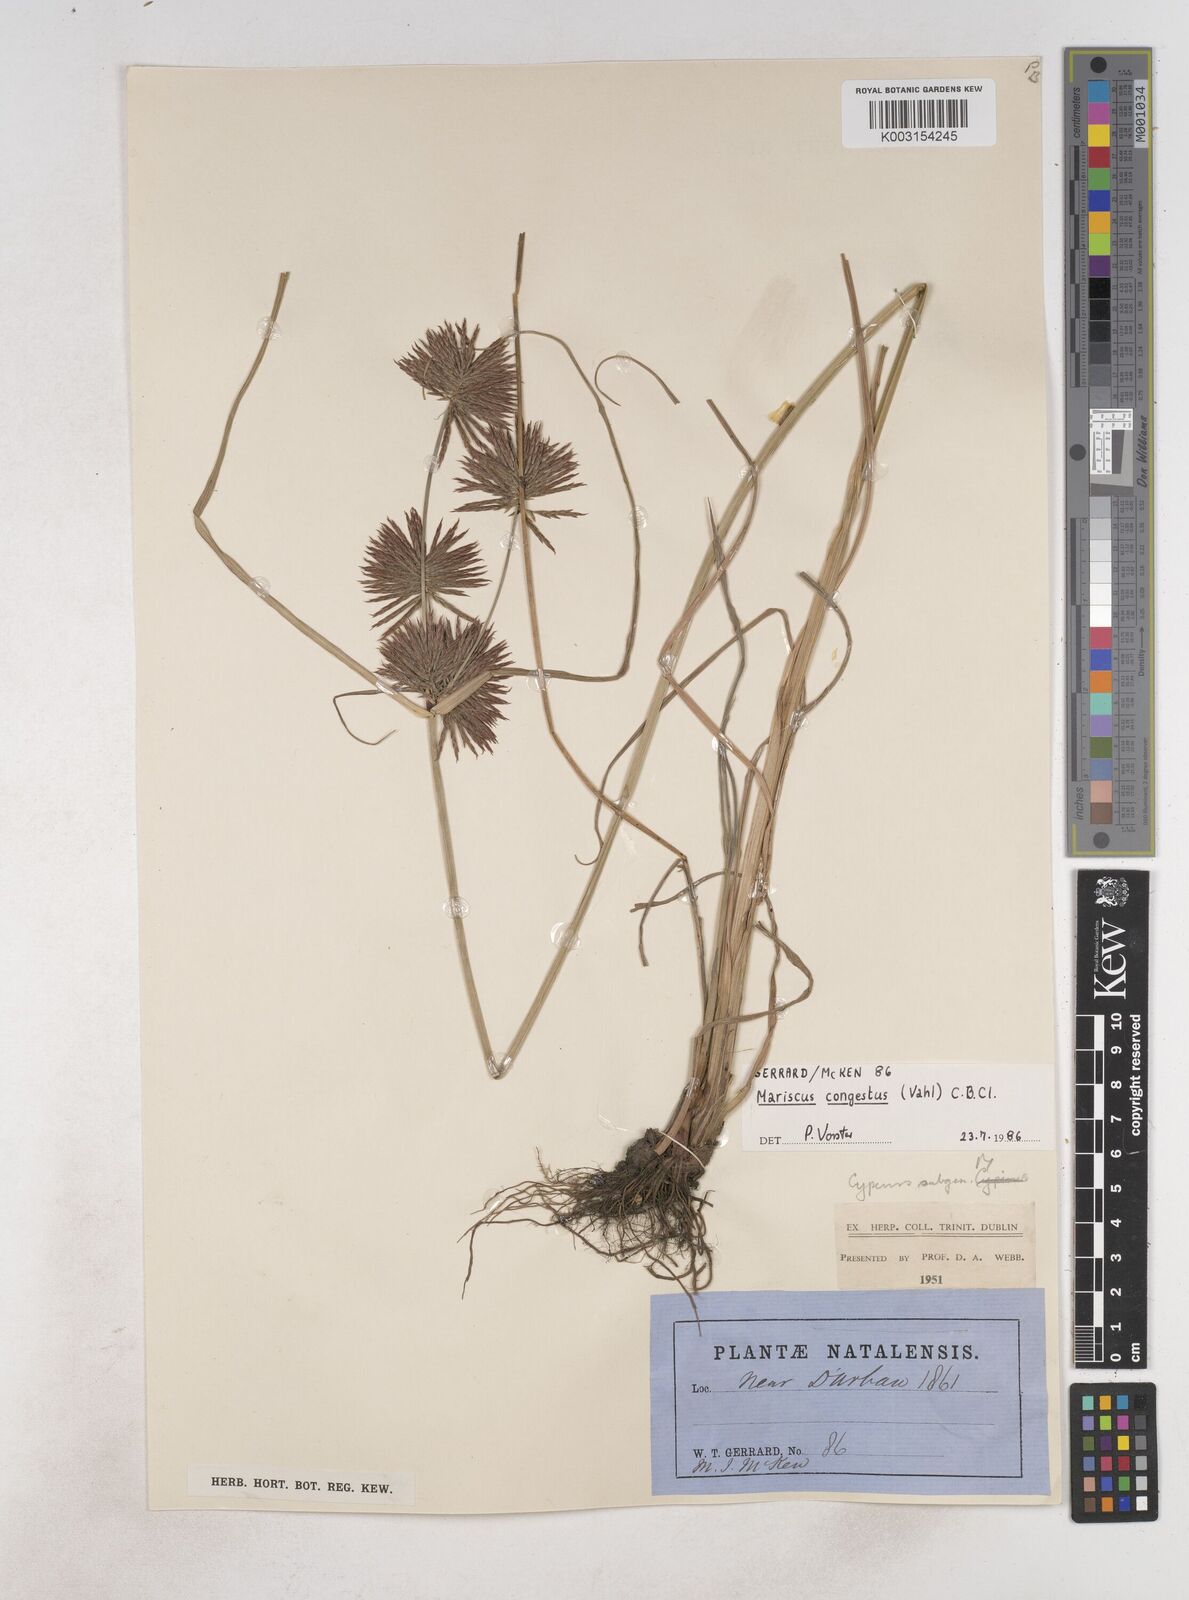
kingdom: Plantae
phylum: Tracheophyta
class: Liliopsida
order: Poales
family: Cyperaceae
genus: Cyperus
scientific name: Cyperus congestus
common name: Dense flat sedge
